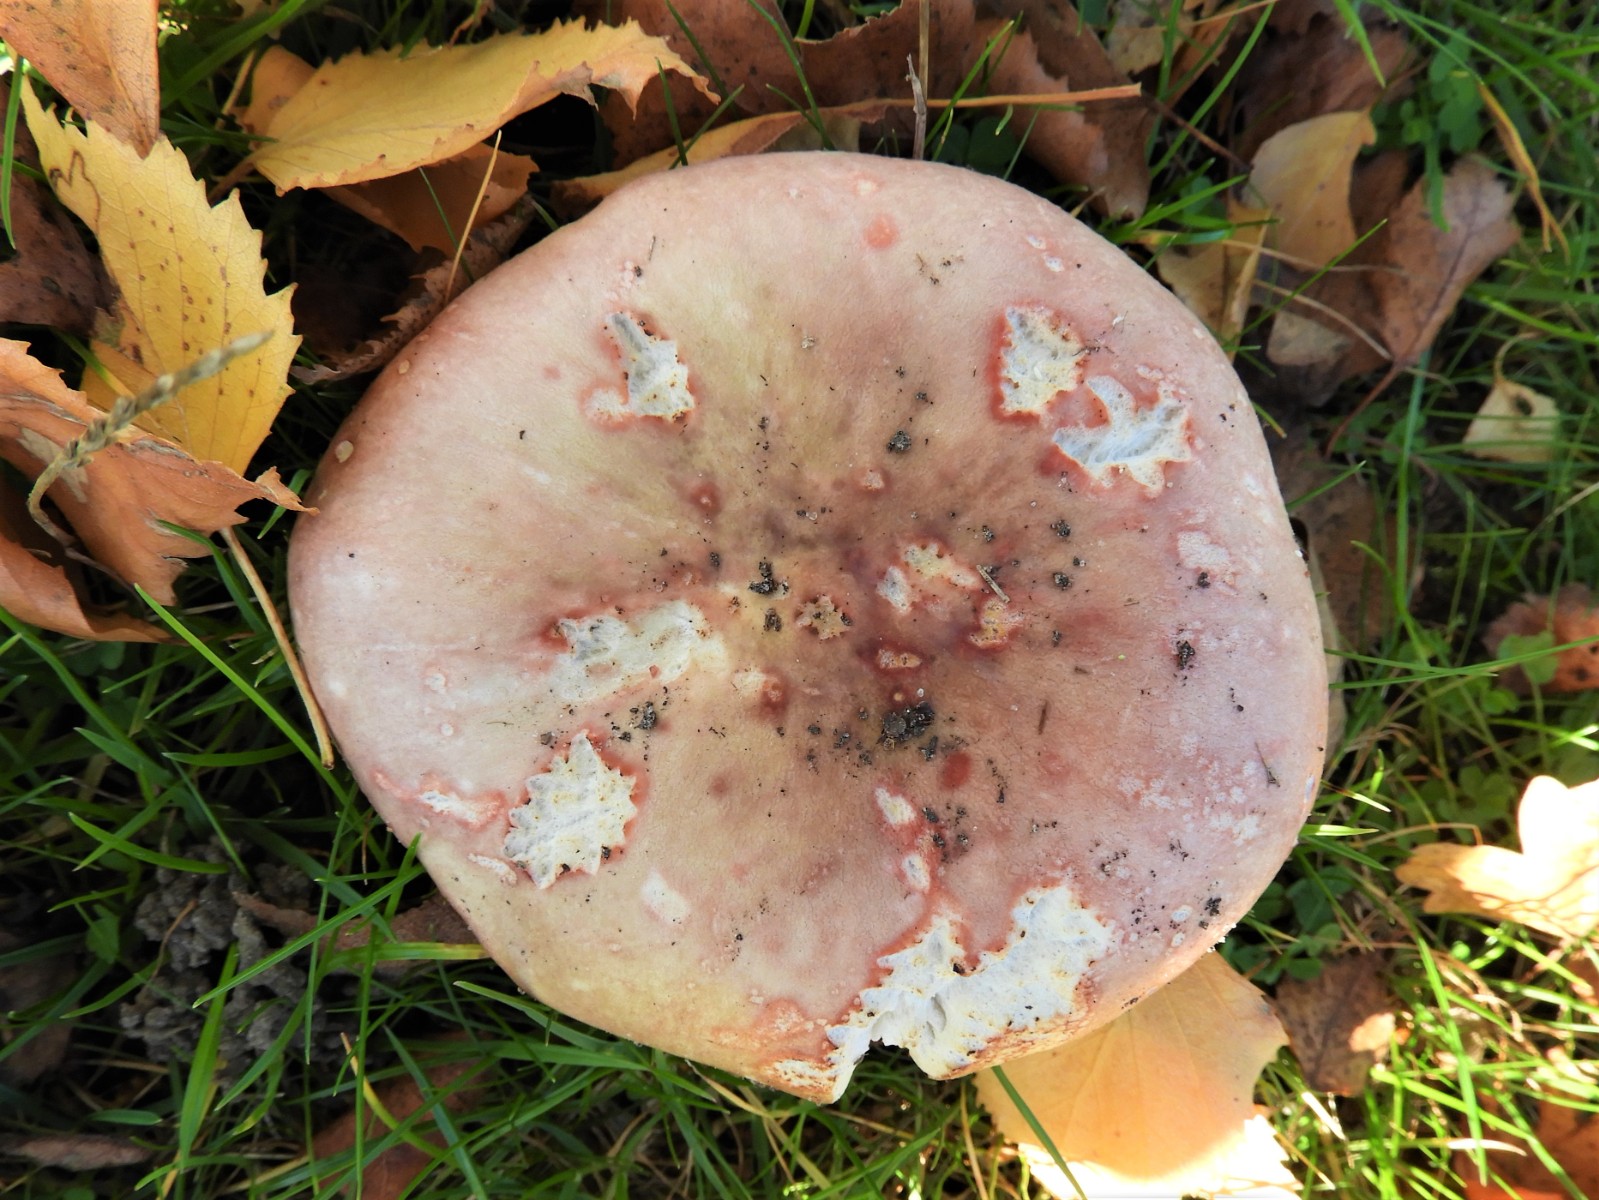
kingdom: Fungi
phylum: Basidiomycota
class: Agaricomycetes
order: Russulales
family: Russulaceae
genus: Russula
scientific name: Russula depallens
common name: falmende skørhat
